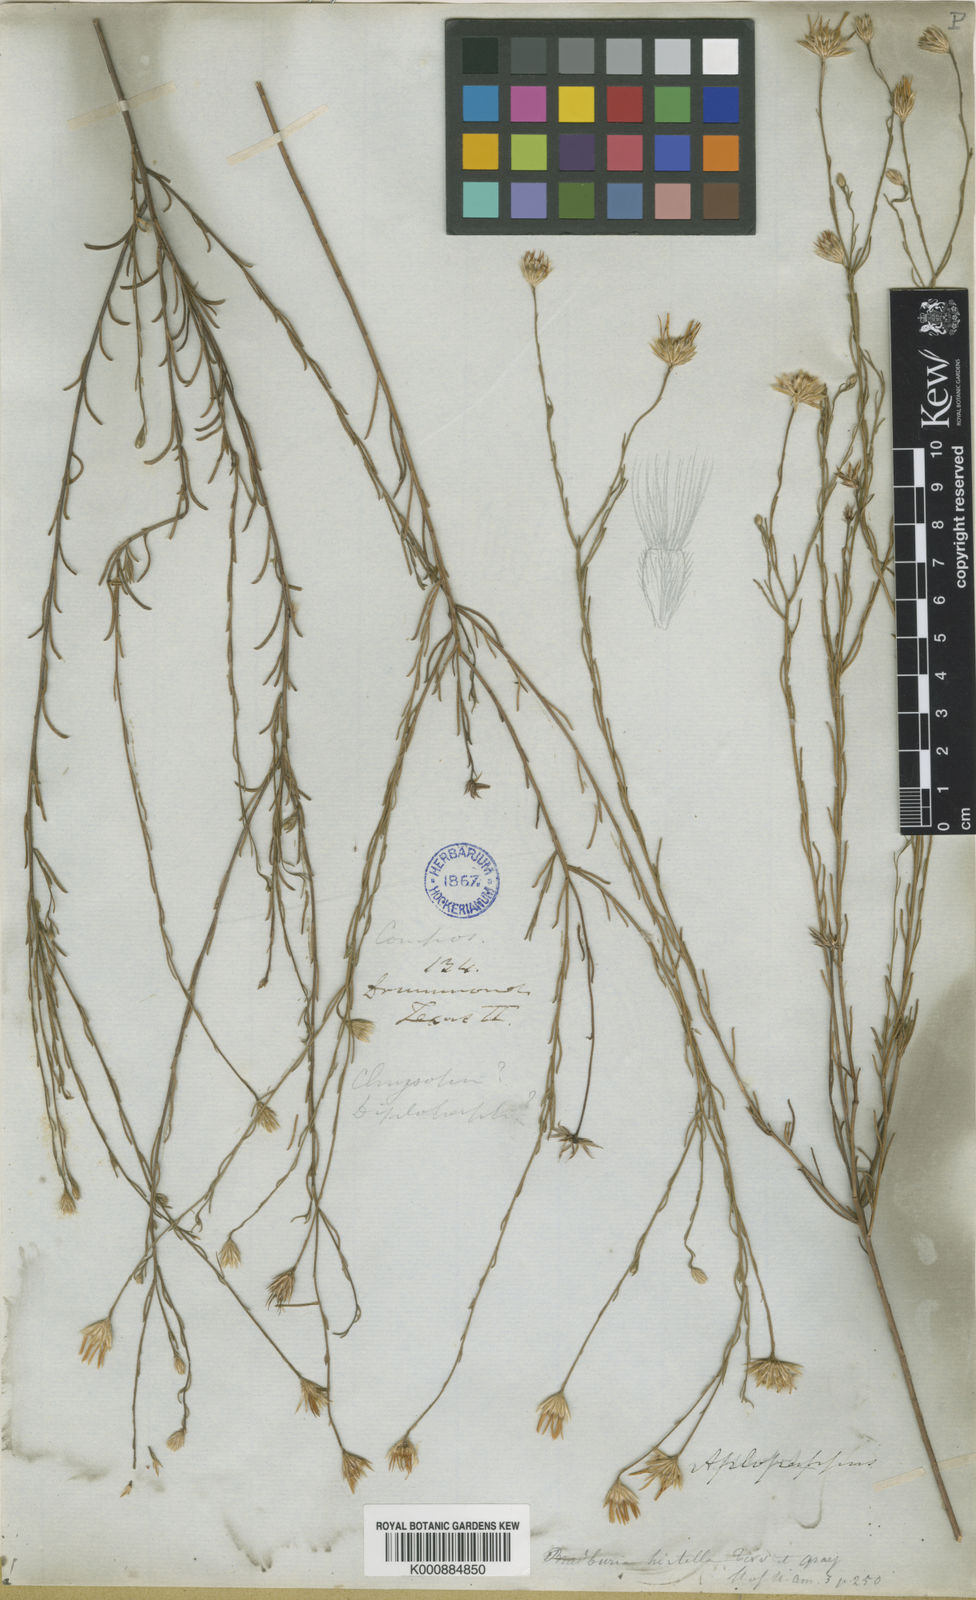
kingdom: Plantae
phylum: Tracheophyta
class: Magnoliopsida
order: Asterales
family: Asteraceae
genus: Erigeron
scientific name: Erigeron chrysopsidis
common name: Dwarf yellow fleabane
